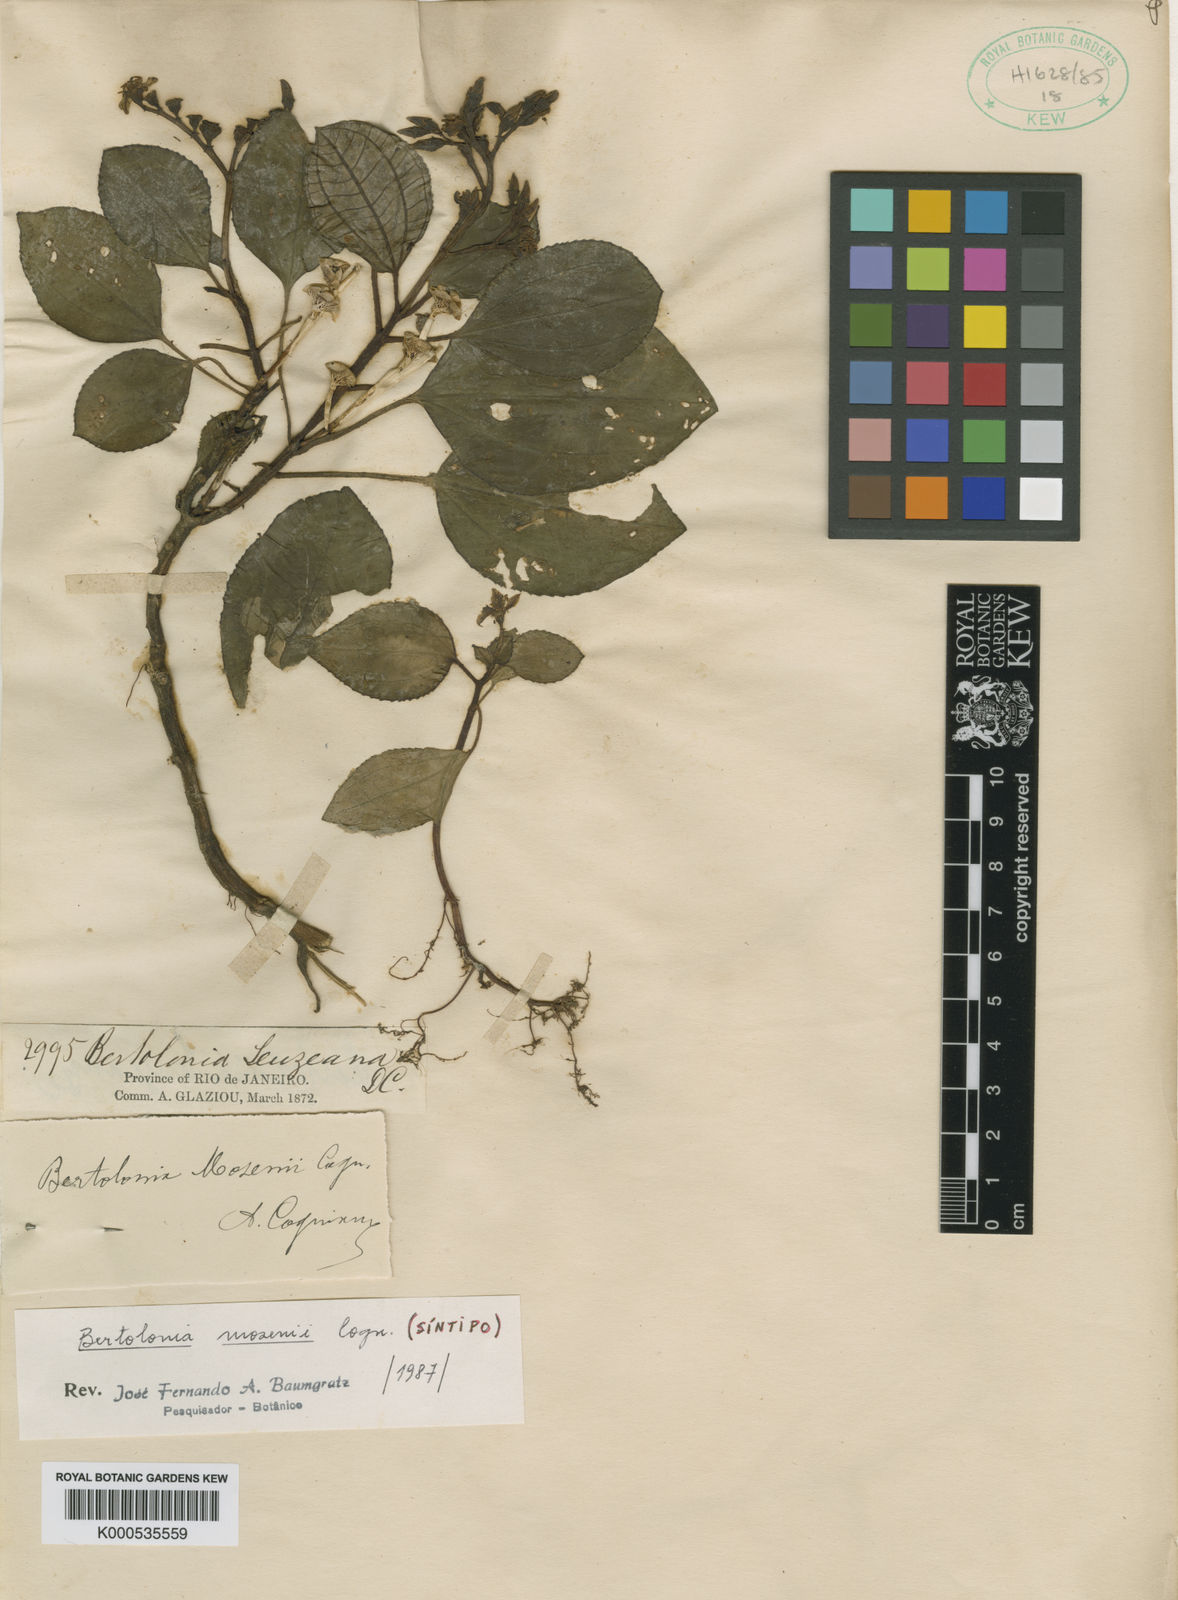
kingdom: Plantae
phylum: Tracheophyta
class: Magnoliopsida
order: Myrtales
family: Melastomataceae
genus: Bertolonia
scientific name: Bertolonia mosenii
